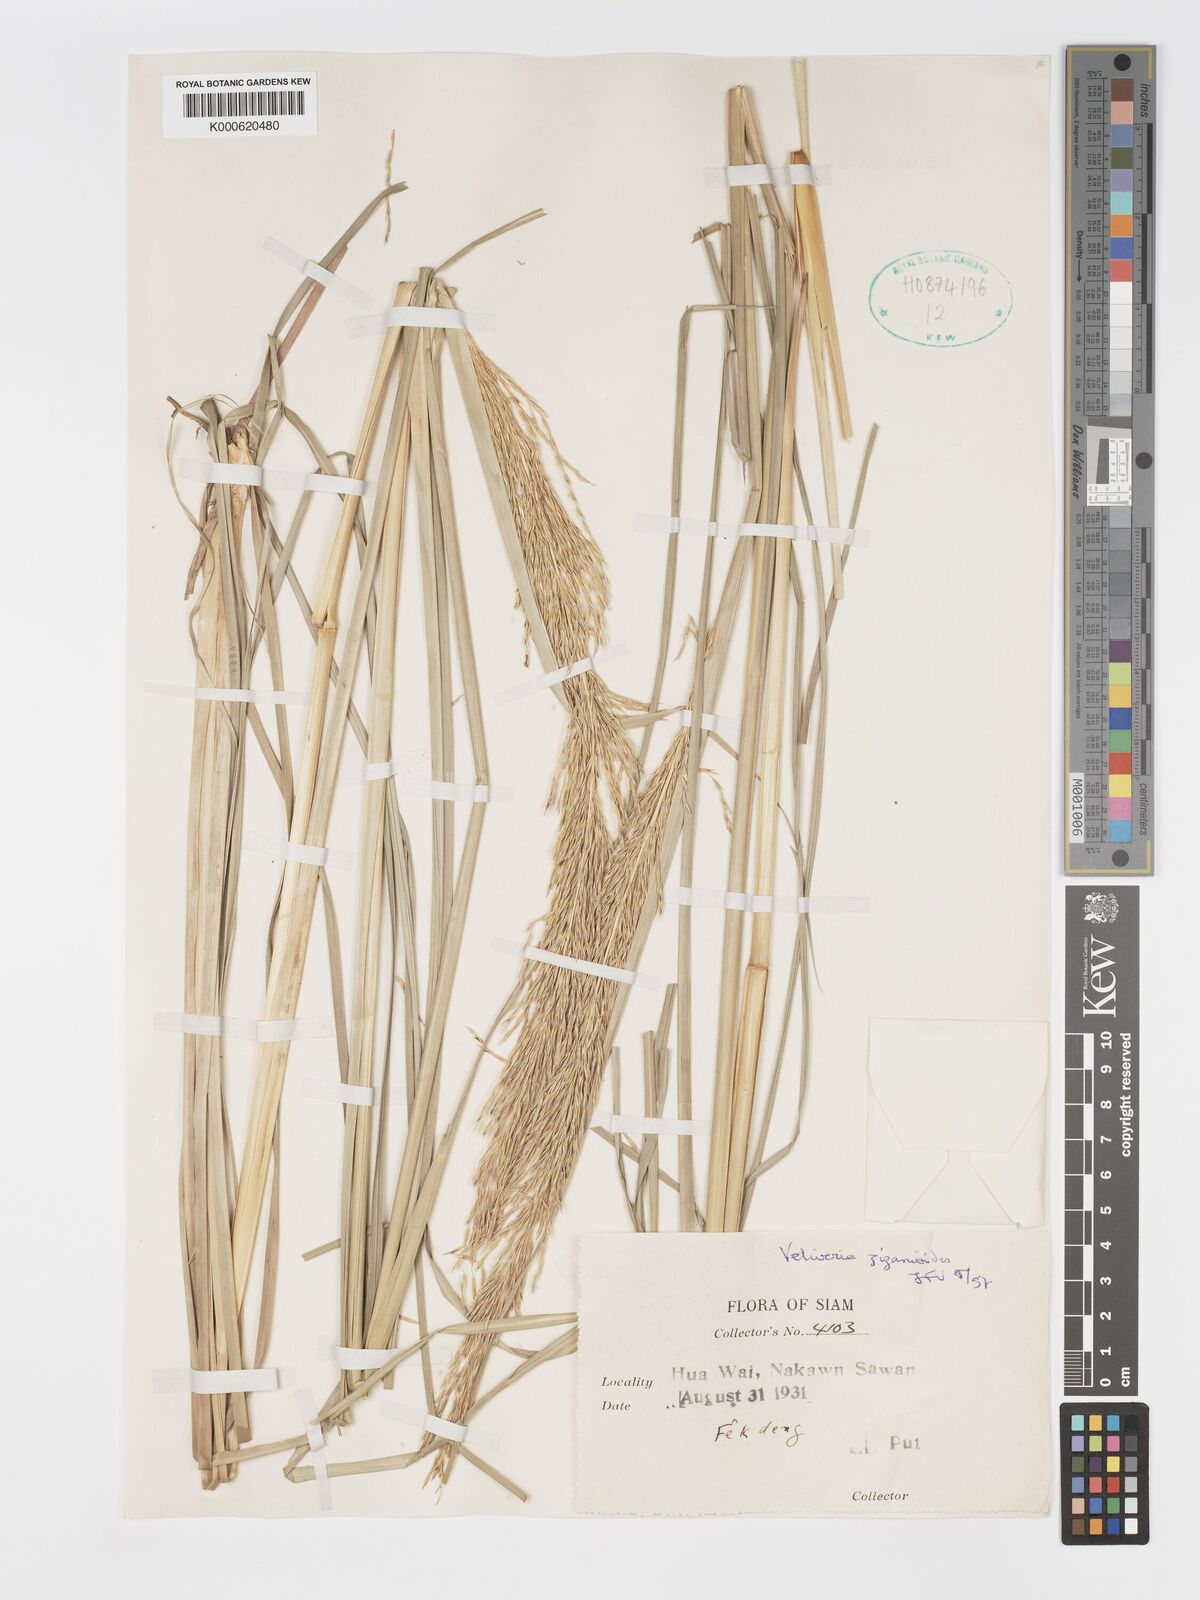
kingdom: Plantae
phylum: Tracheophyta
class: Liliopsida
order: Poales
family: Poaceae
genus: Chrysopogon
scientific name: Chrysopogon zizanioides
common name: False beardgrass
